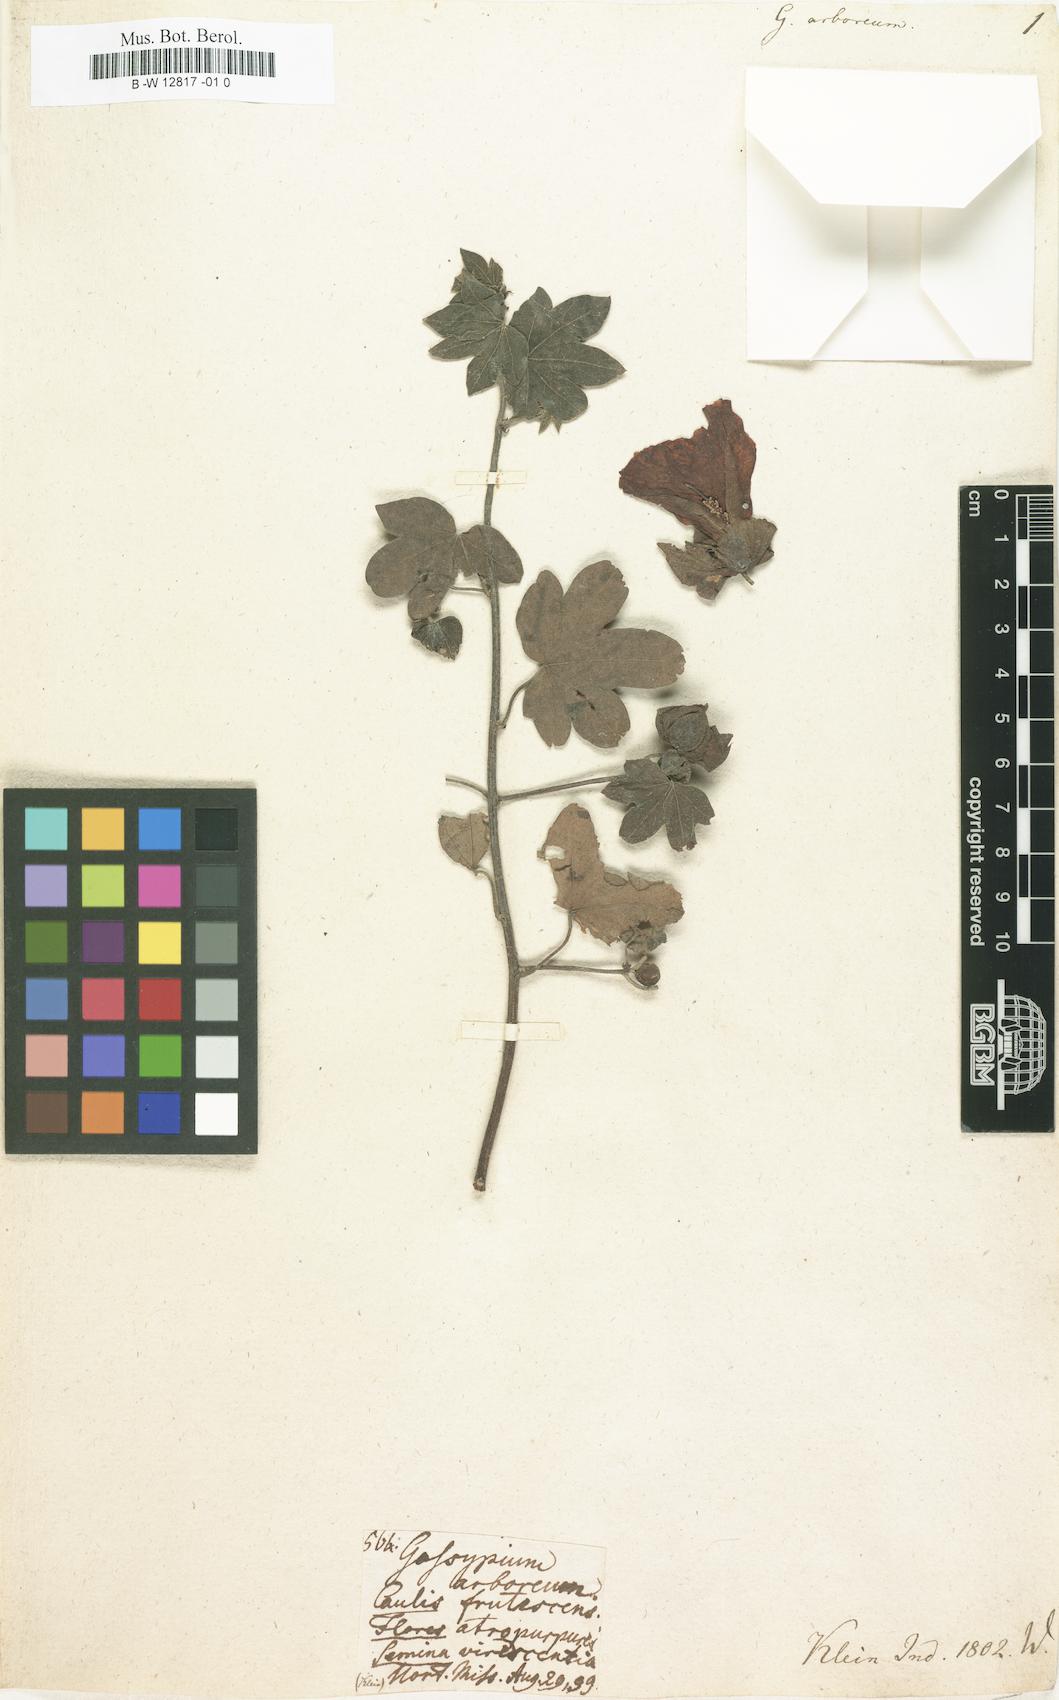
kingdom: Plantae
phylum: Tracheophyta
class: Magnoliopsida
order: Malvales
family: Malvaceae
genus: Gossypium
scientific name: Gossypium arboreum
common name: Tree cotton
